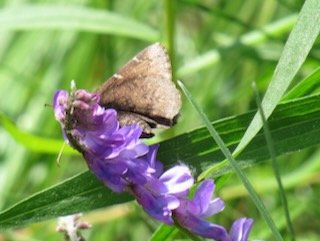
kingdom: Animalia
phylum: Arthropoda
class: Insecta
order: Lepidoptera
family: Hesperiidae
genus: Autochton
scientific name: Autochton
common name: Northern Cloudywing
